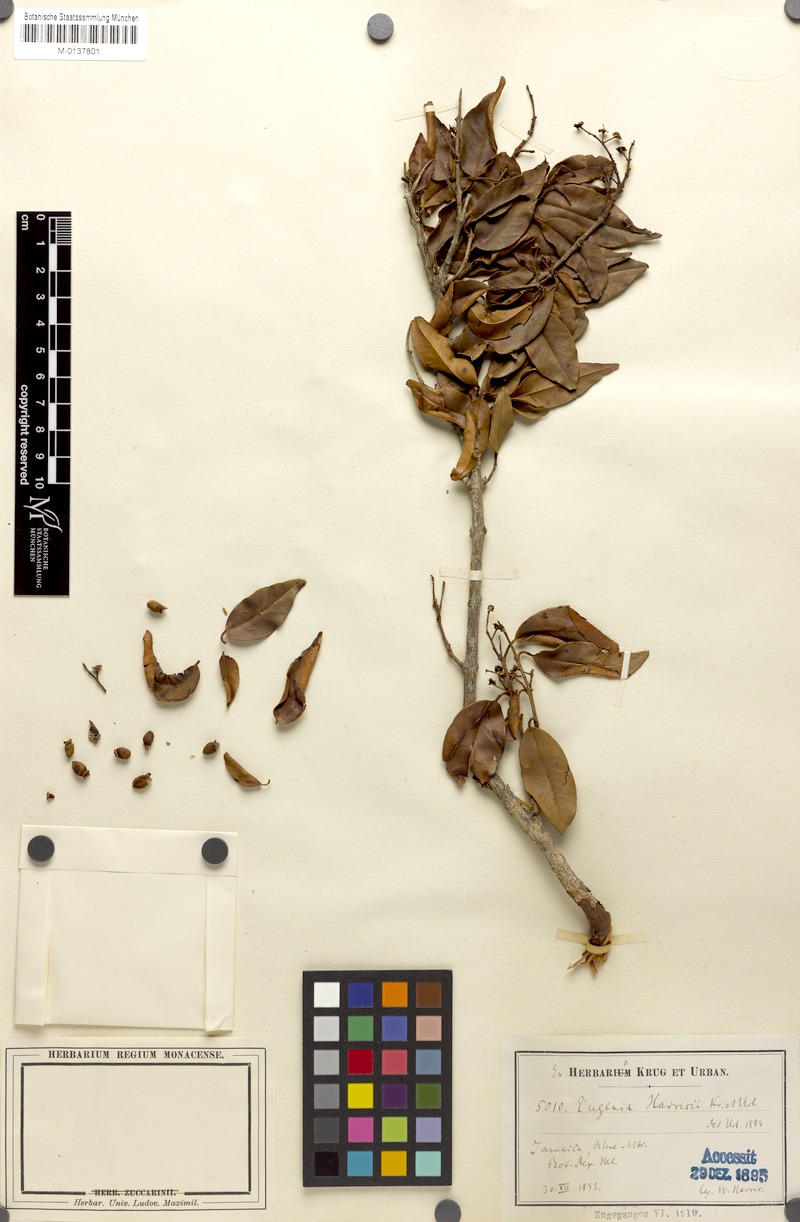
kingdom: Plantae
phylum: Tracheophyta
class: Magnoliopsida
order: Myrtales
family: Myrtaceae
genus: Eugenia
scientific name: Eugenia harrisii
